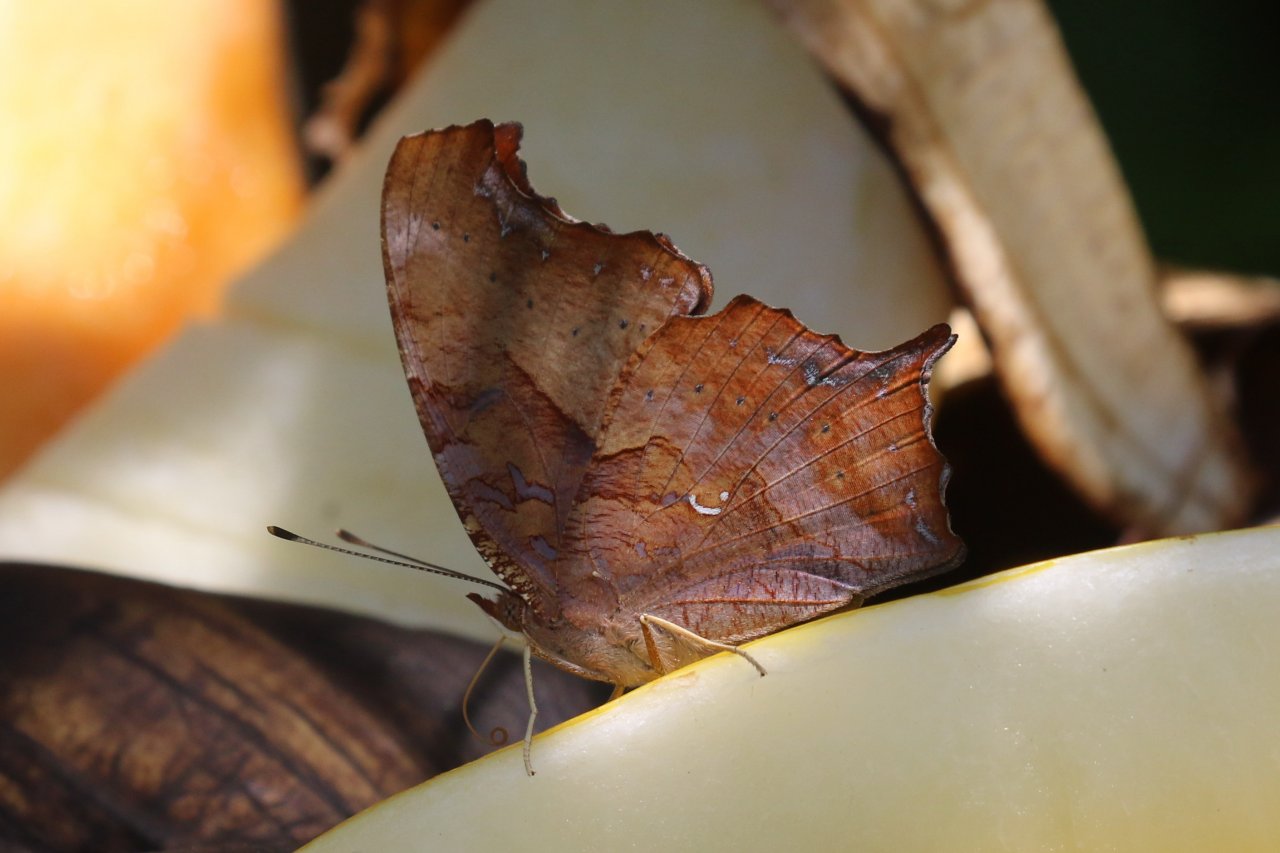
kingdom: Animalia
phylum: Arthropoda
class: Insecta
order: Lepidoptera
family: Nymphalidae
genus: Polygonia
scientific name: Polygonia interrogationis
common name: Question Mark
